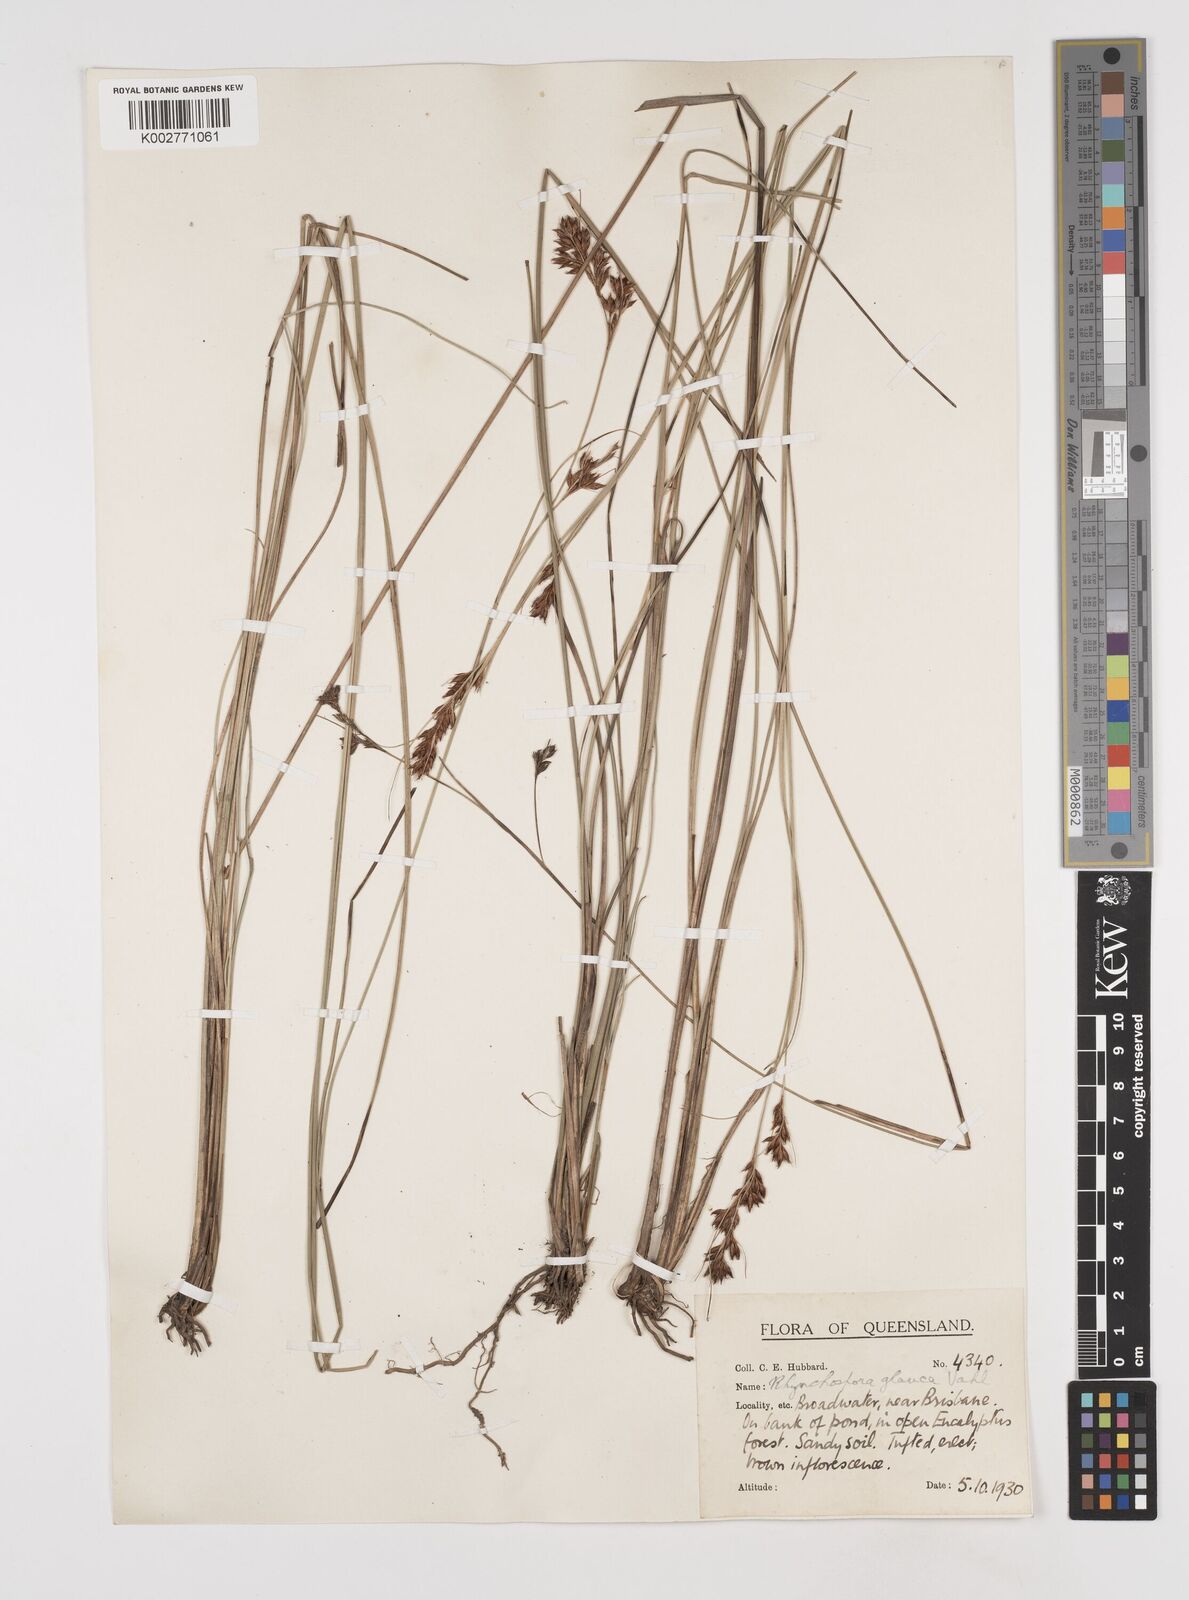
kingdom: Plantae
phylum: Tracheophyta
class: Liliopsida
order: Poales
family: Cyperaceae
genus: Rhynchospora
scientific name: Rhynchospora rugosa
